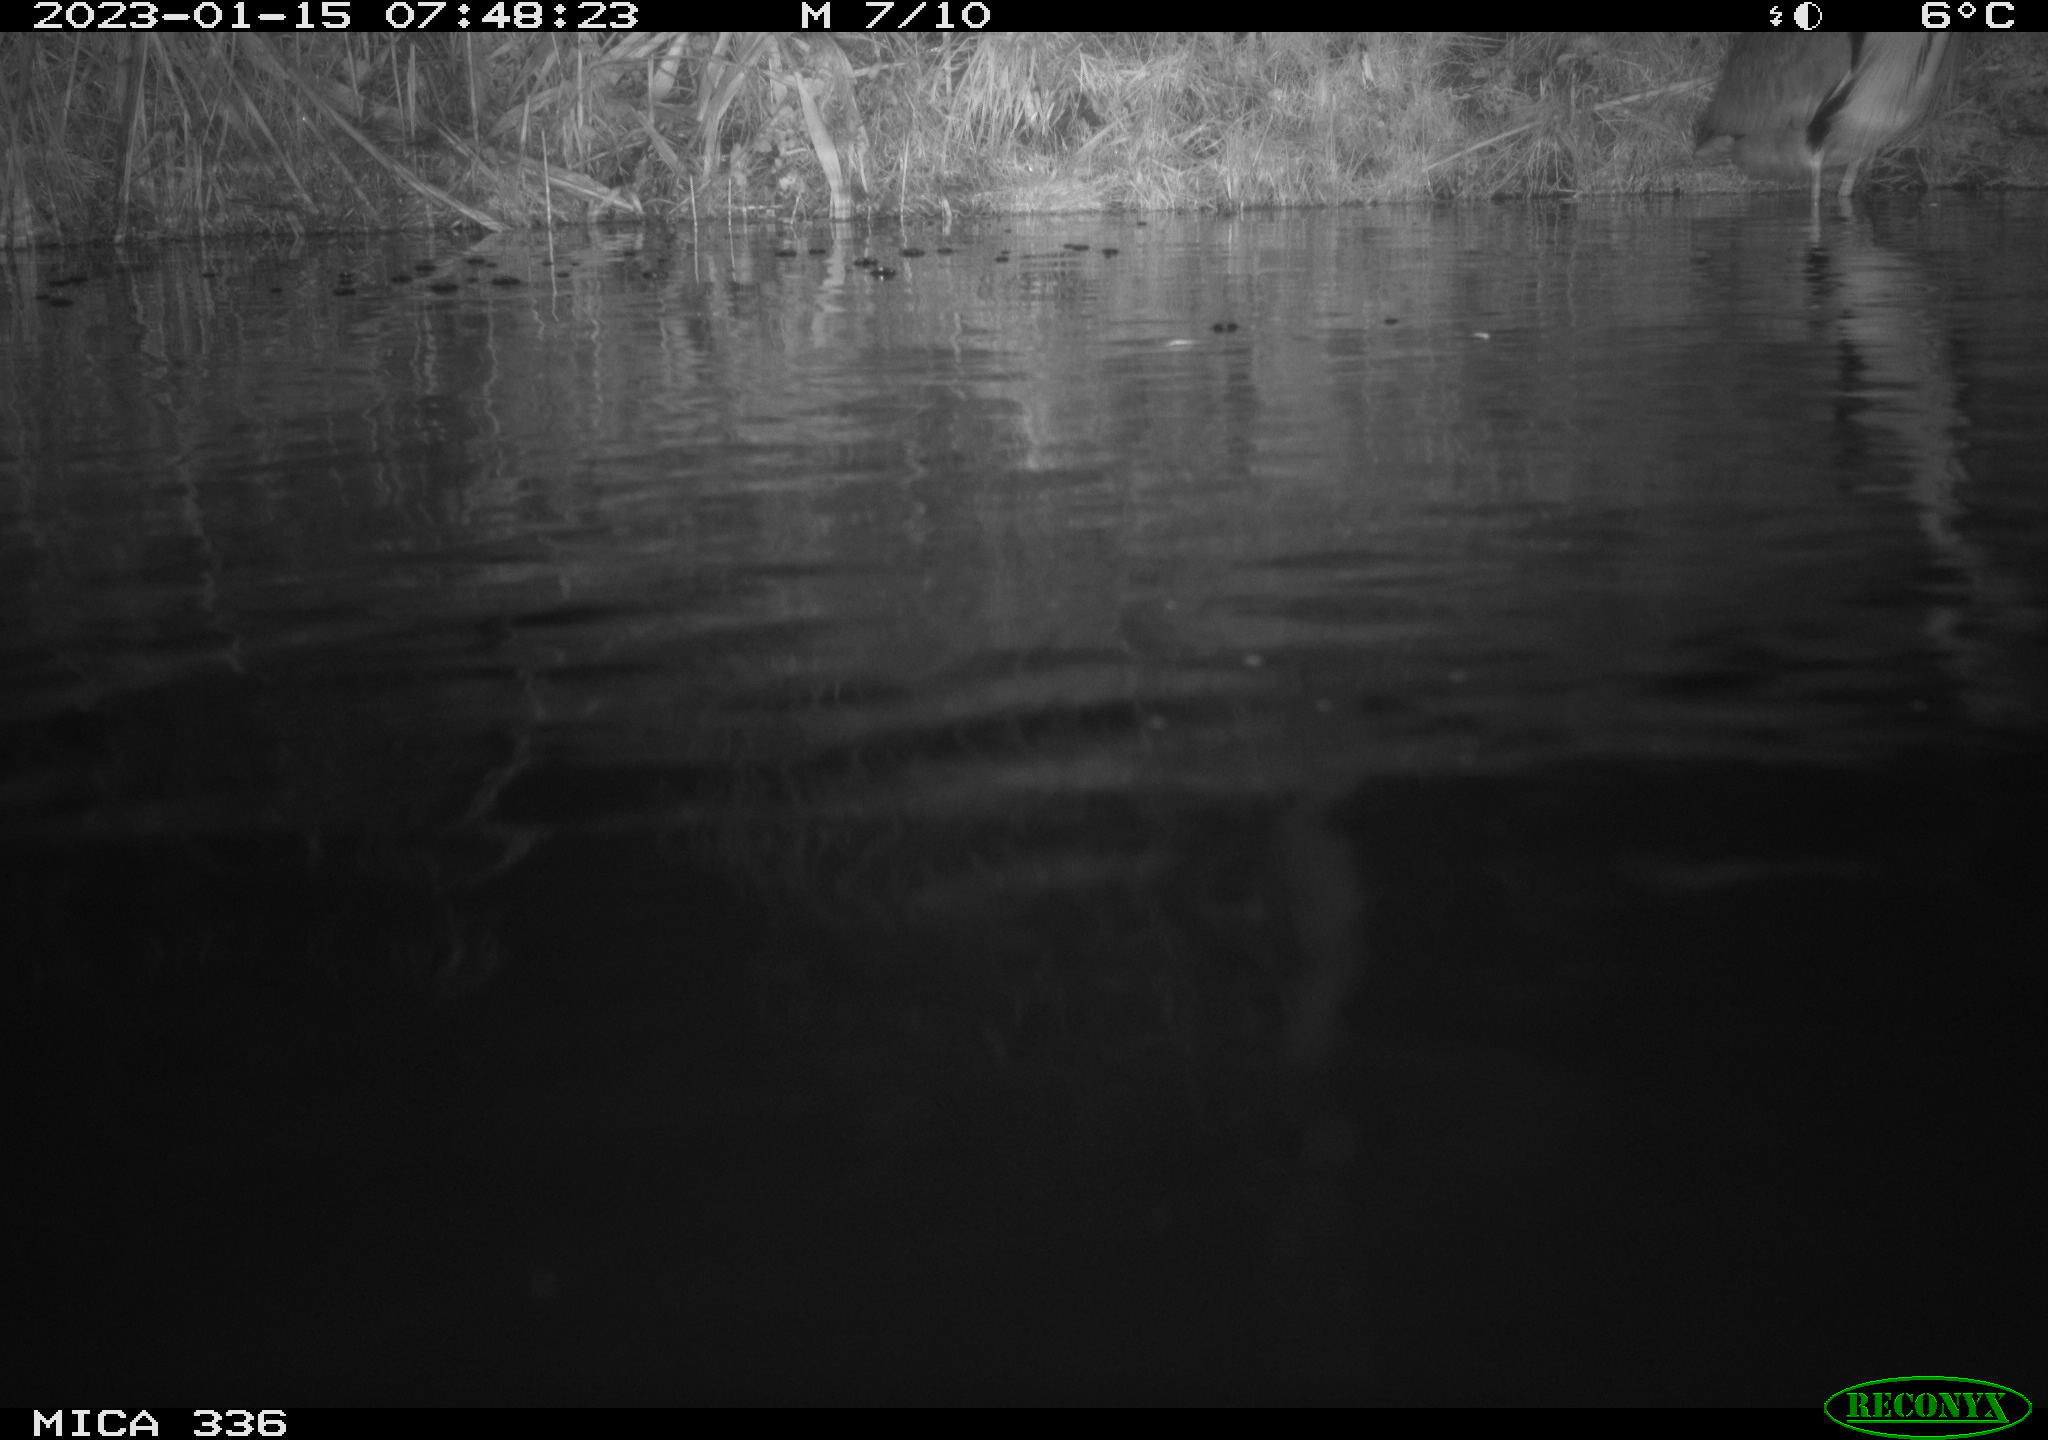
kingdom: Animalia
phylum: Chordata
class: Aves
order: Pelecaniformes
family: Ardeidae
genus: Ardea
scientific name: Ardea cinerea
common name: Grey heron
